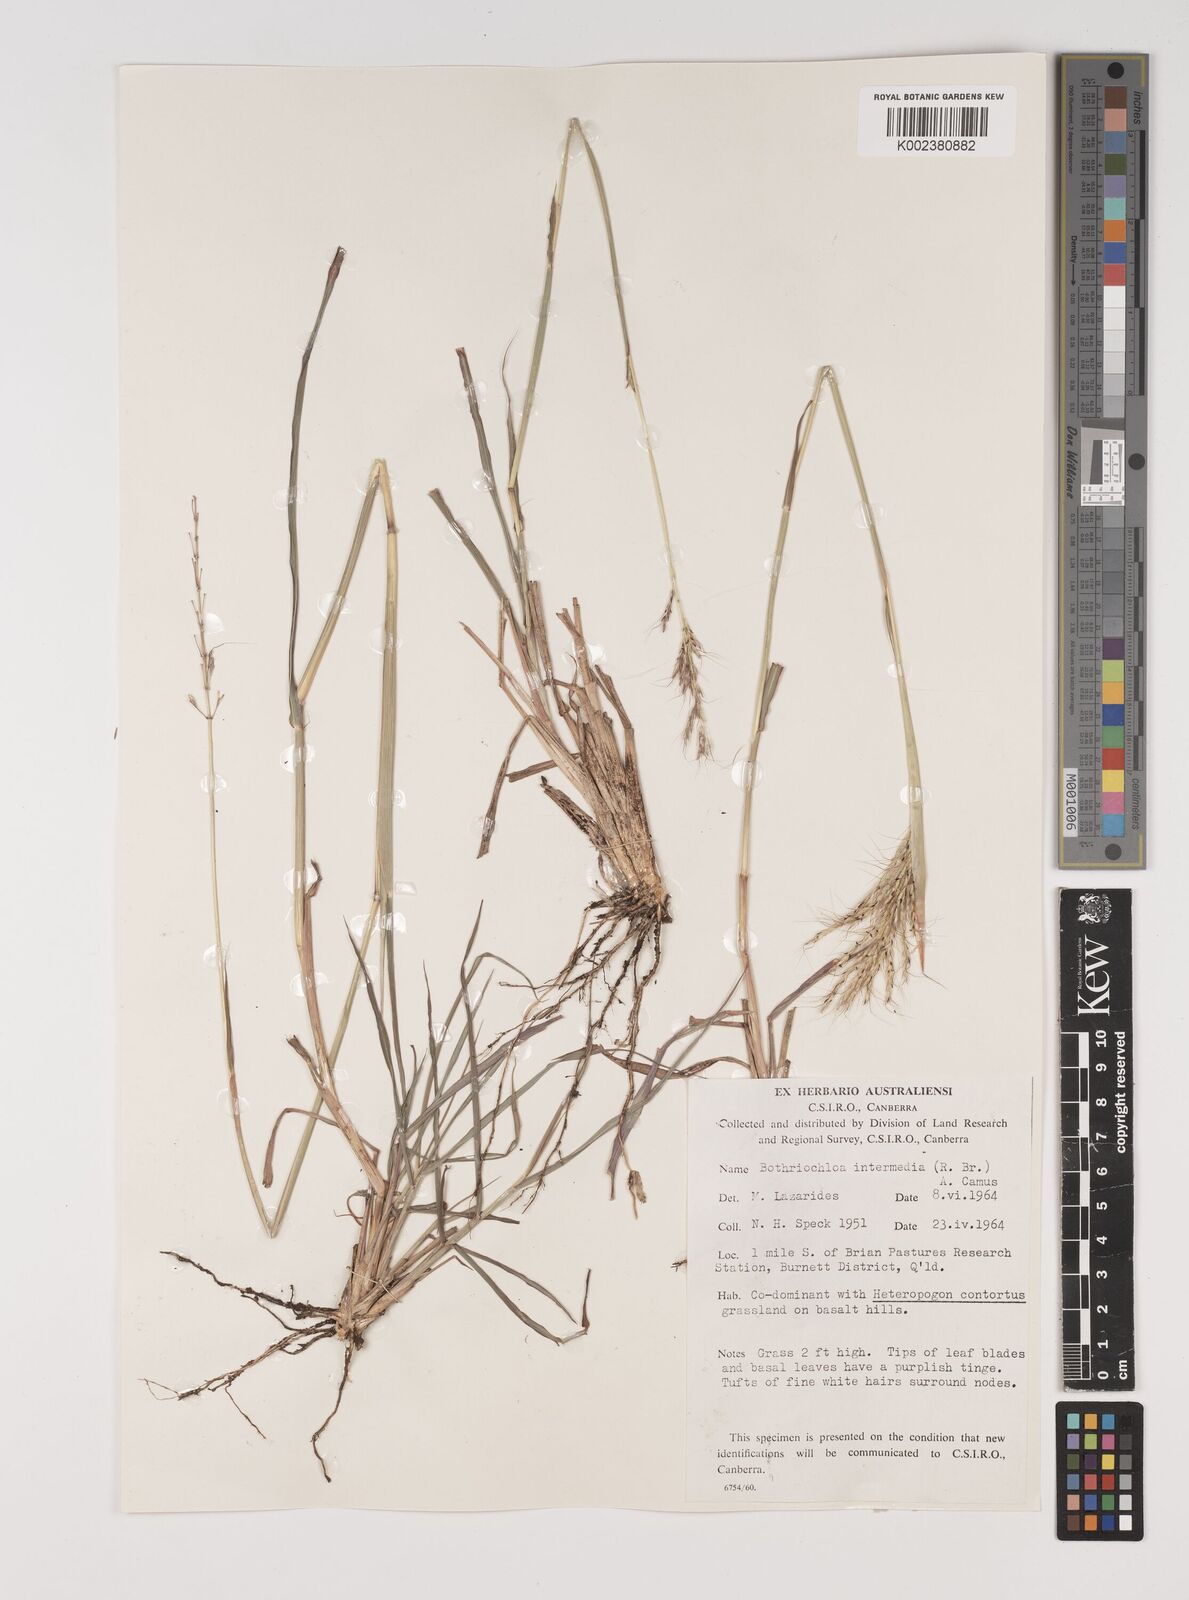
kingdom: Plantae
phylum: Tracheophyta
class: Liliopsida
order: Poales
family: Poaceae
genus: Bothriochloa
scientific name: Bothriochloa bladhii
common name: Caucasian bluestem
